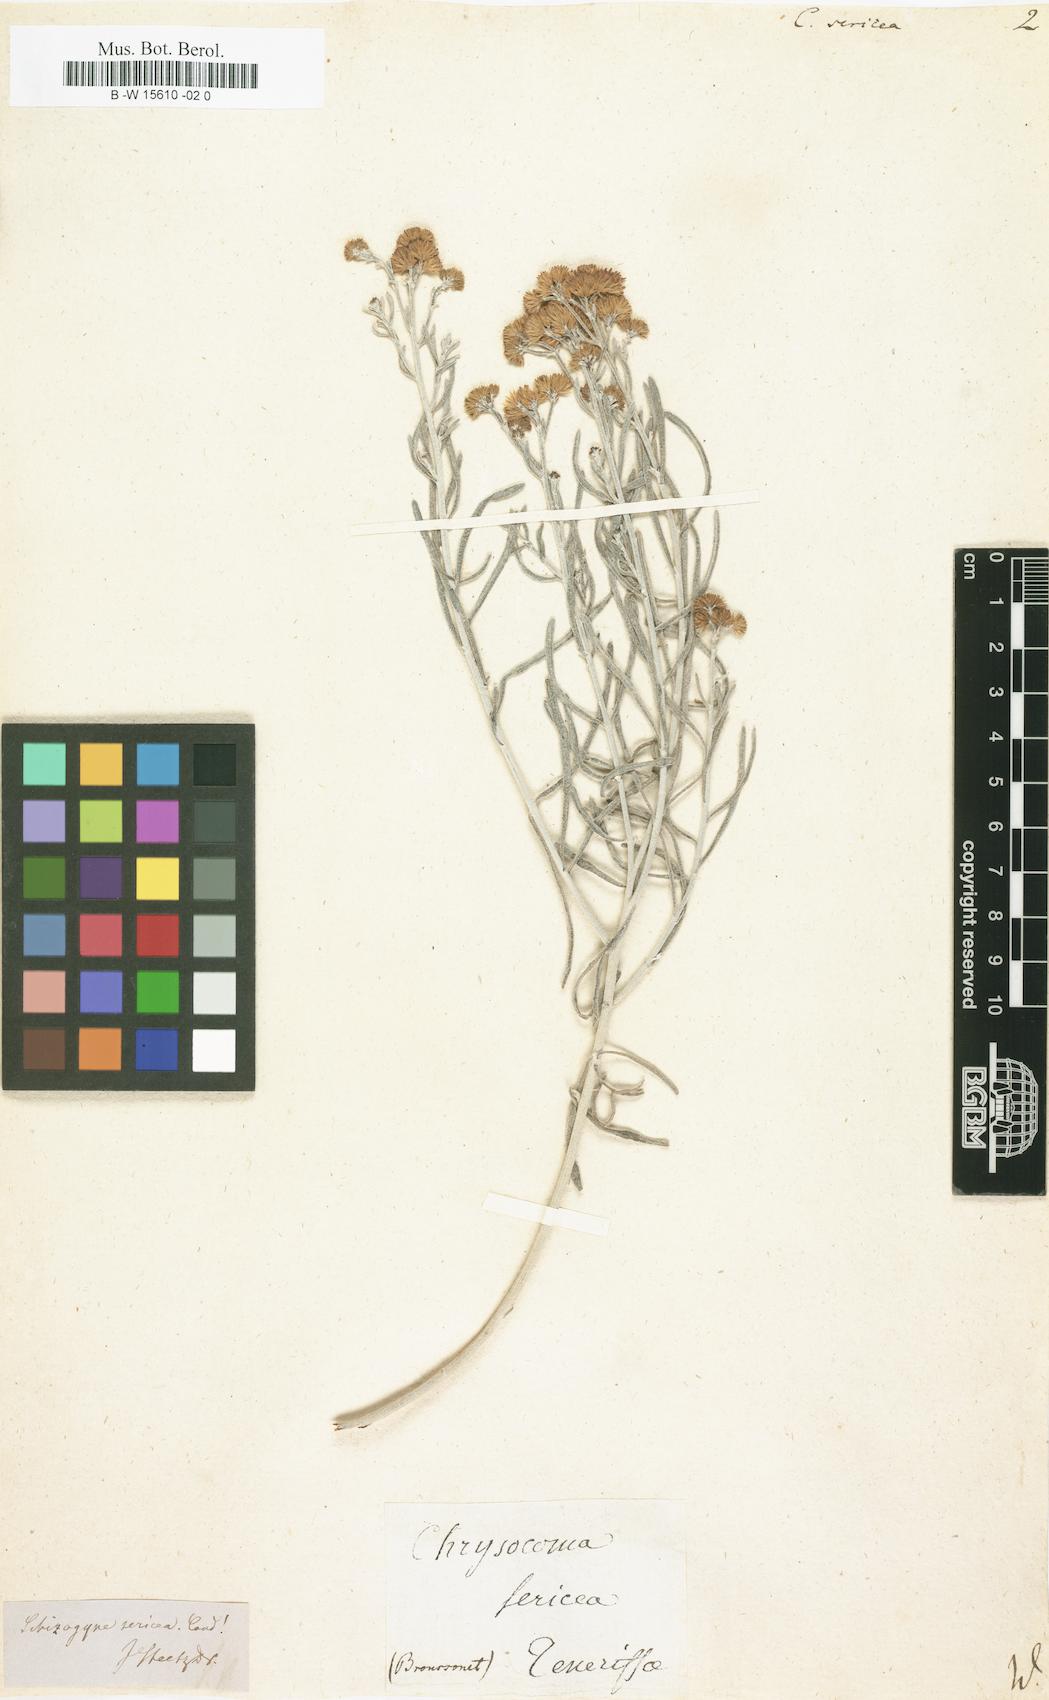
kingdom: Plantae
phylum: Tracheophyta
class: Magnoliopsida
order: Asterales
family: Asteraceae
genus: Conyza
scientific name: Conyza sericea
